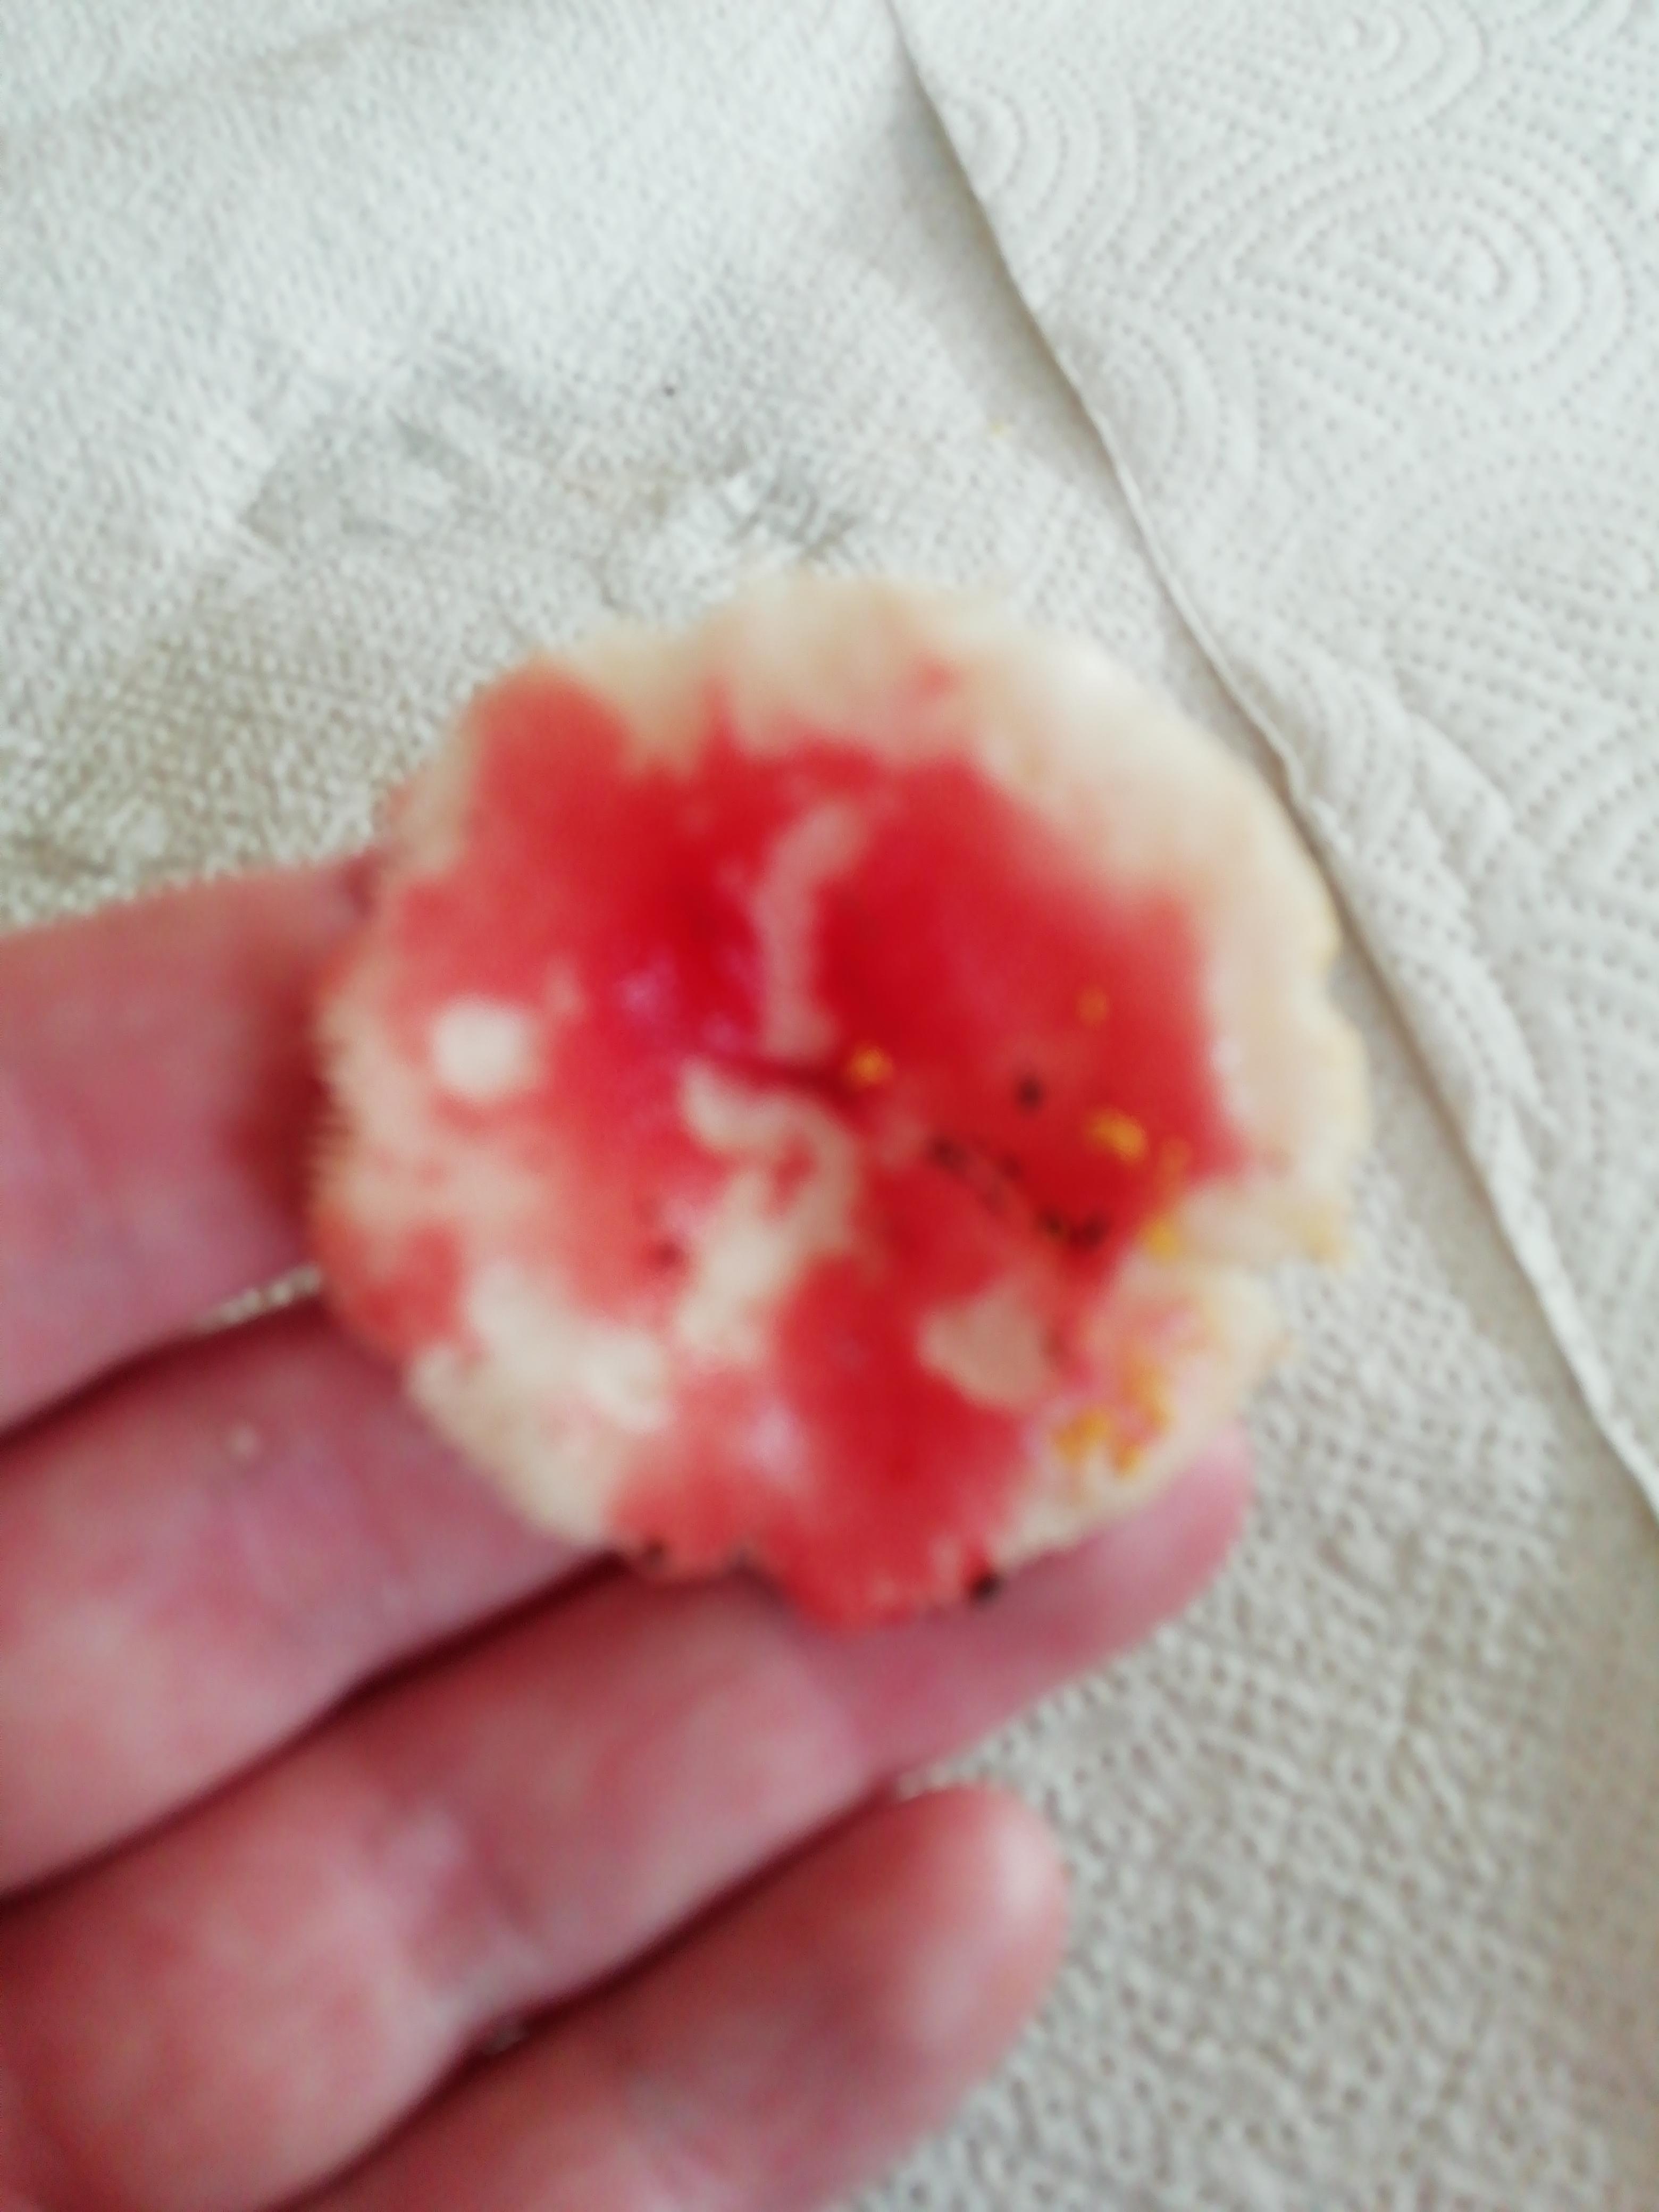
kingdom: Fungi
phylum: Basidiomycota
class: Agaricomycetes
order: Russulales
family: Russulaceae
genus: Russula
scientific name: Russula
